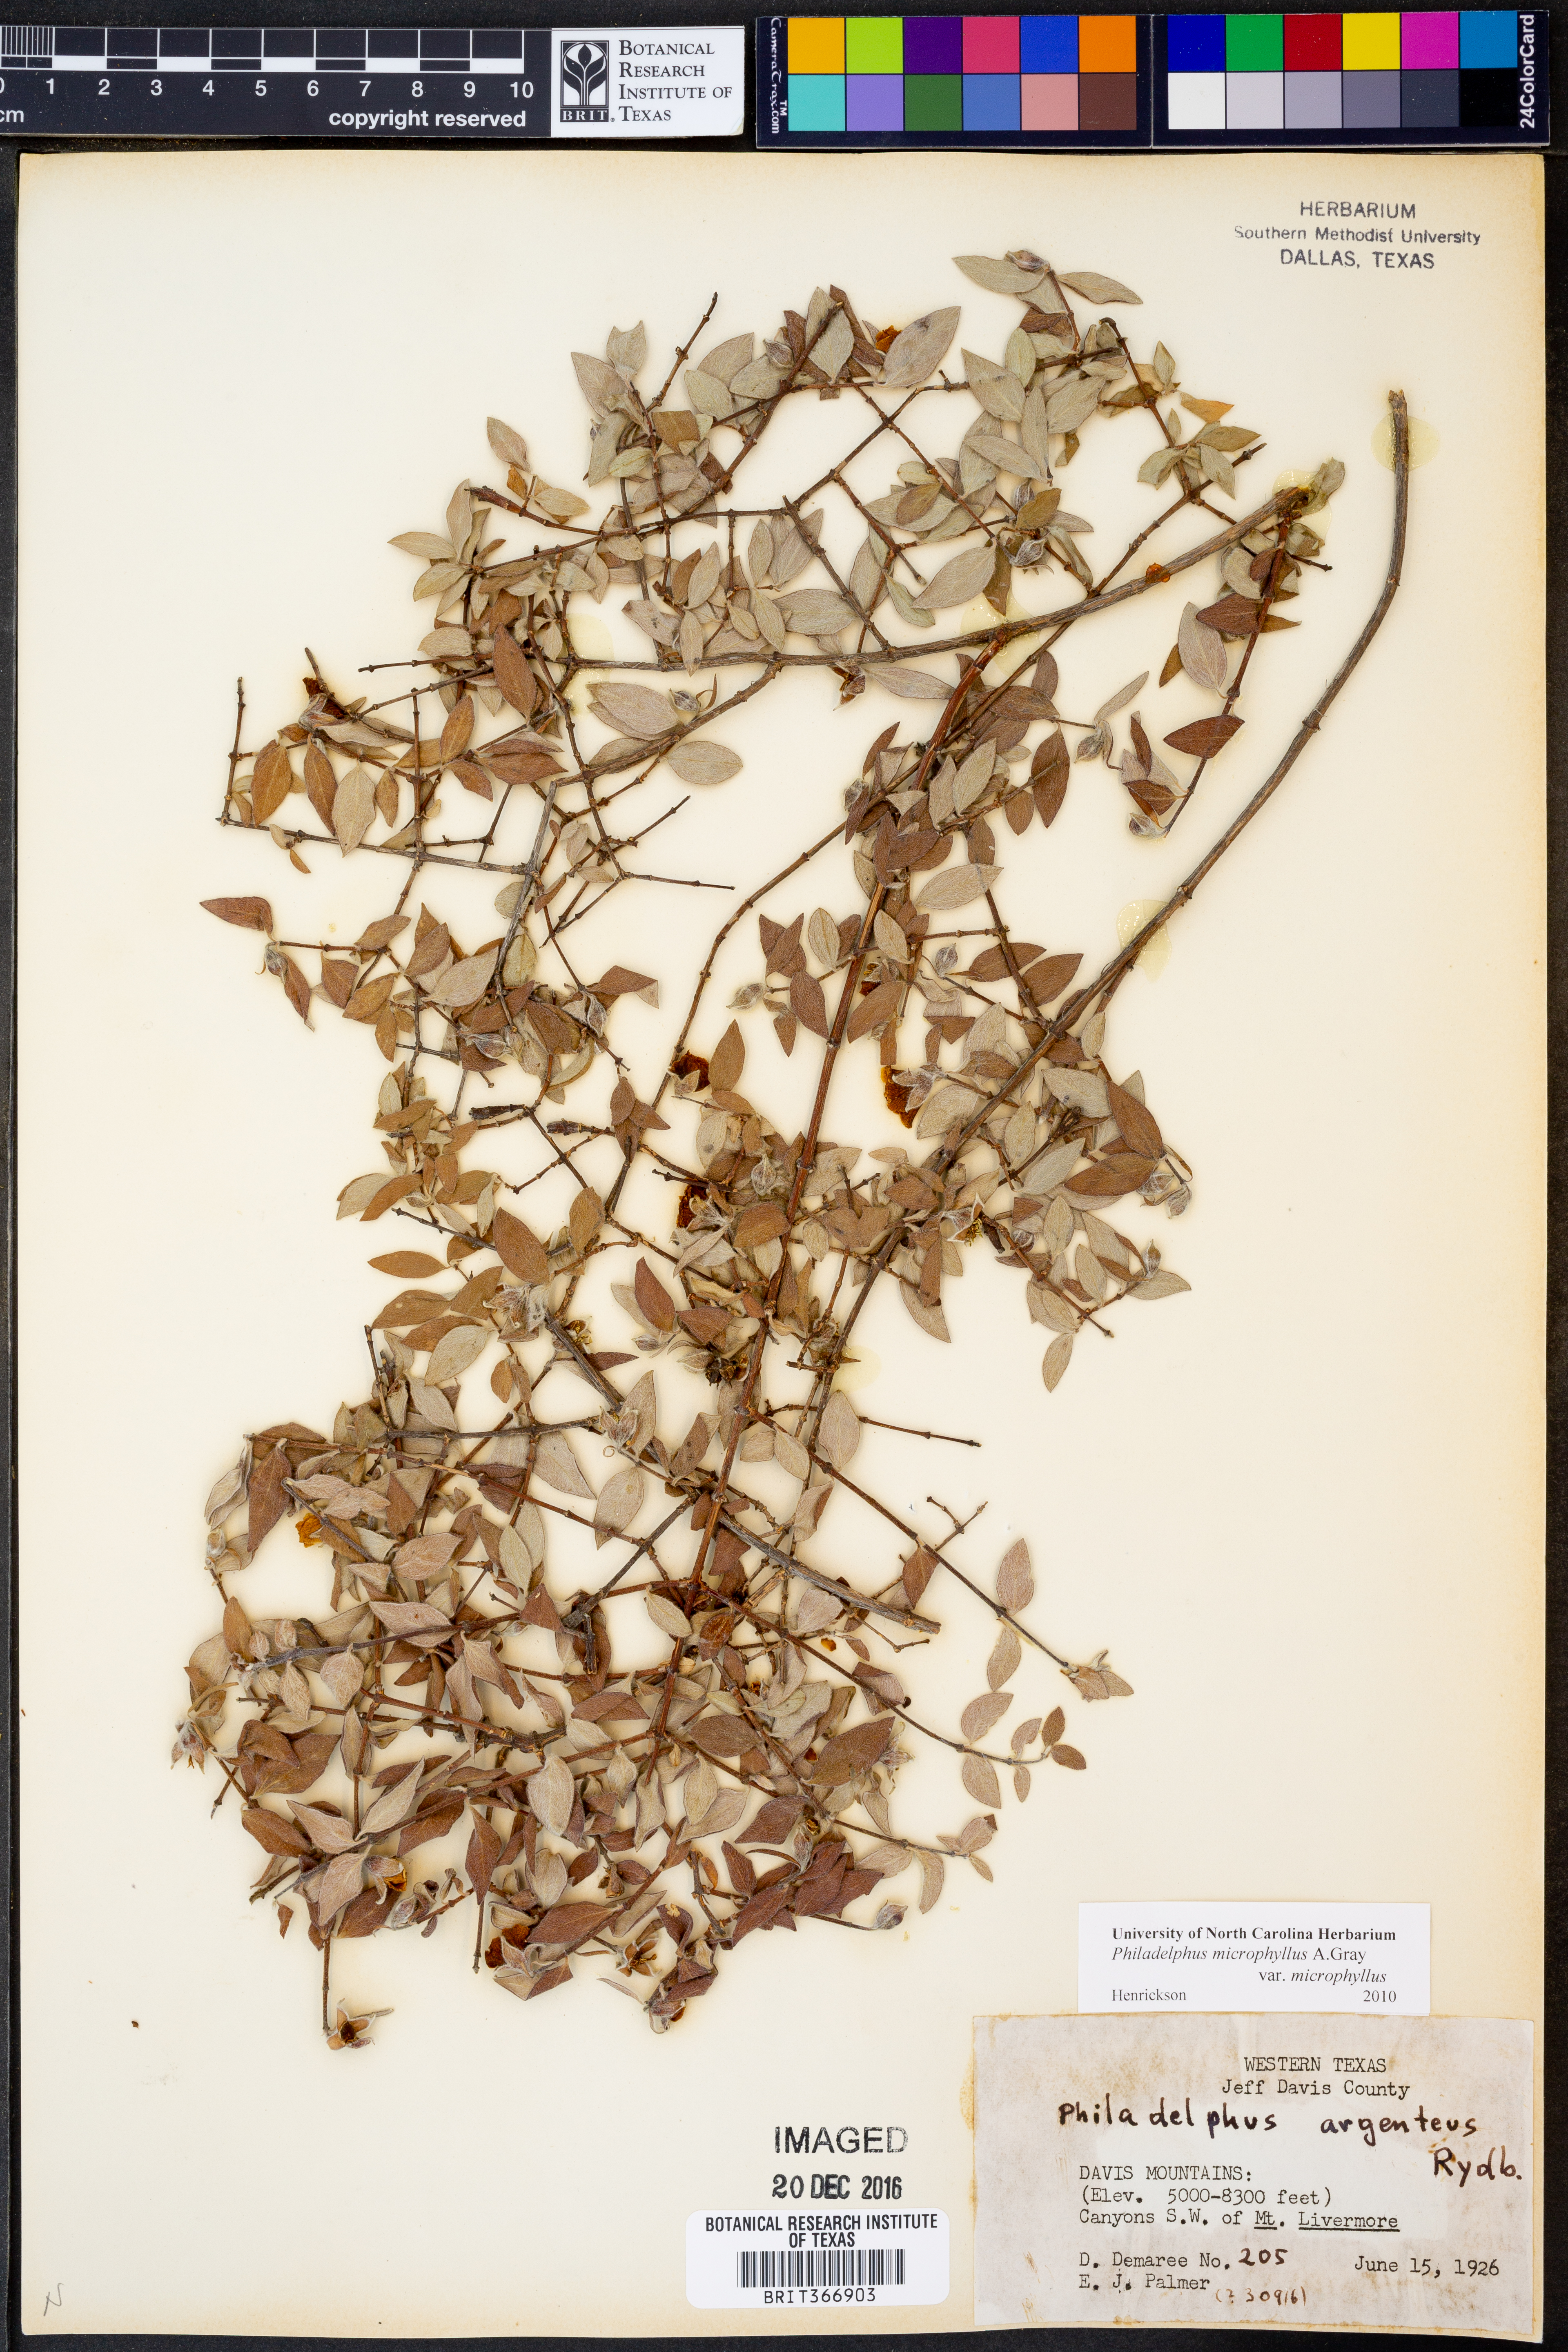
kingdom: Plantae
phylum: Tracheophyta
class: Magnoliopsida
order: Cornales
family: Hydrangeaceae
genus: Philadelphus
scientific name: Philadelphus microphyllus
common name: Desert mock orange
